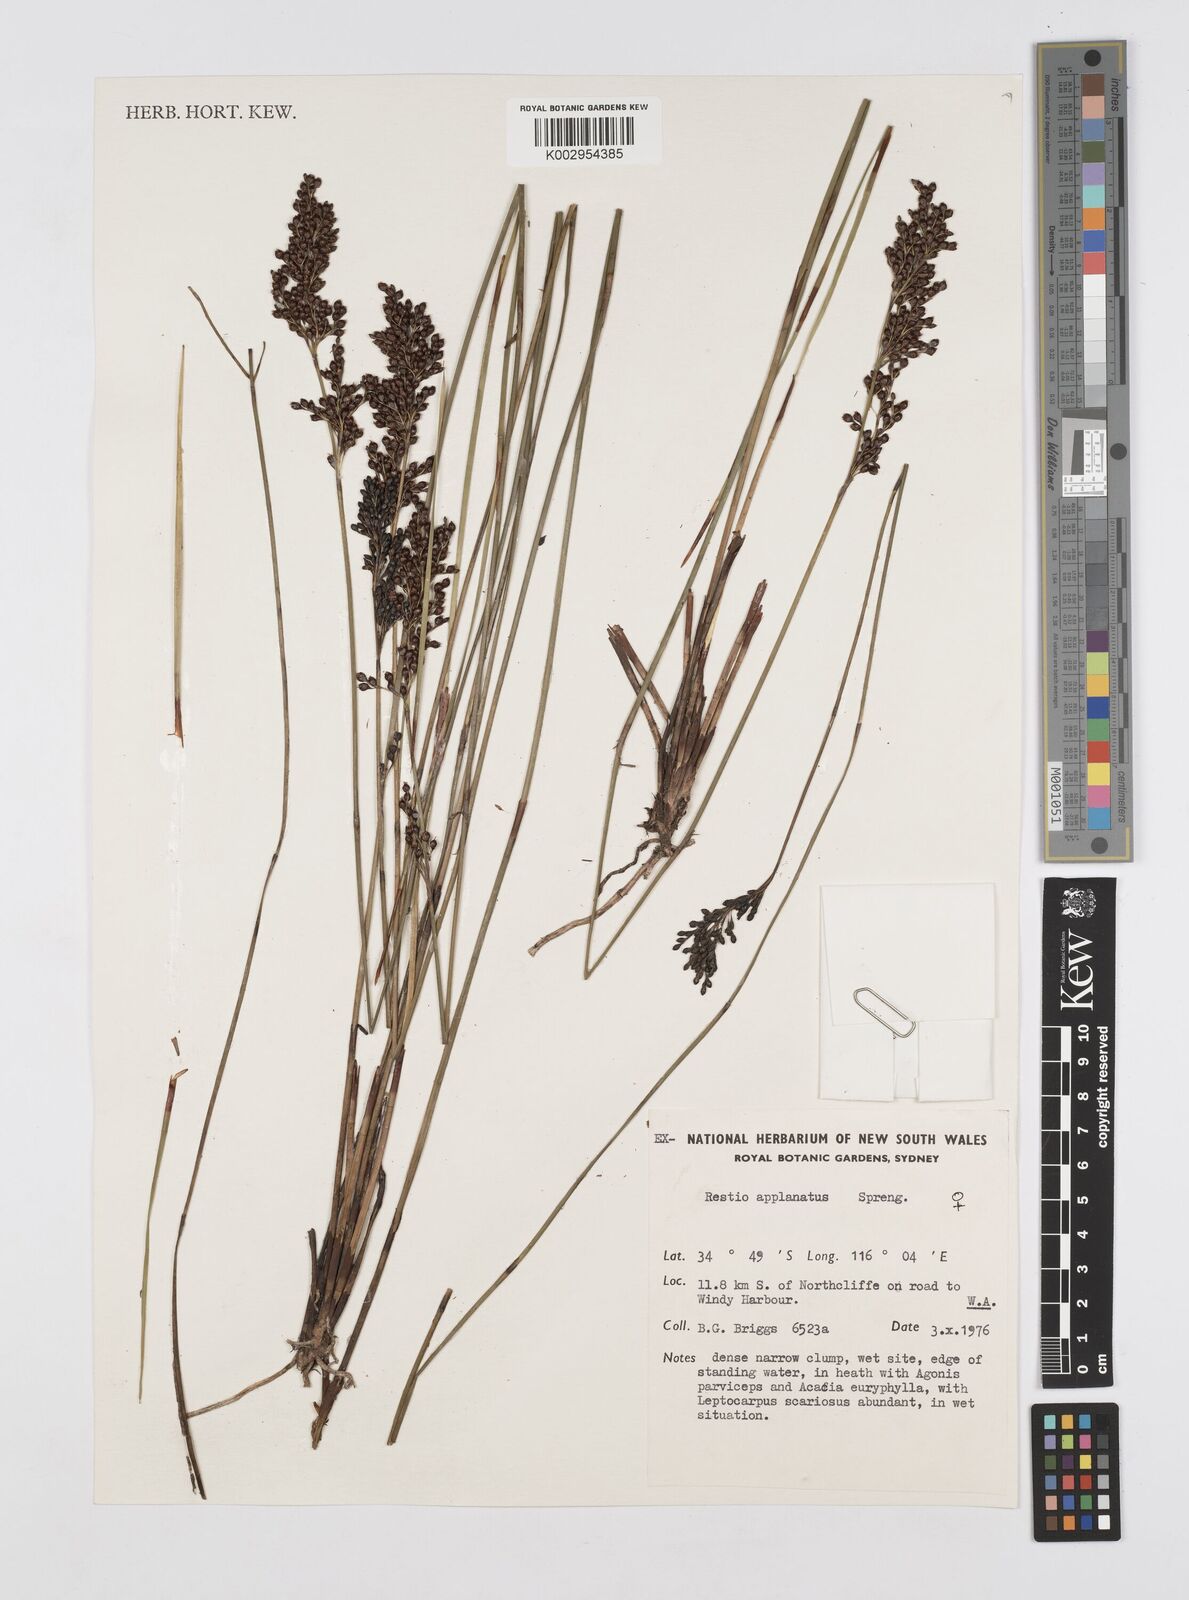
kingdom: Plantae
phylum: Tracheophyta
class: Liliopsida
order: Poales
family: Restionaceae
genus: Platychorda
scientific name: Platychorda applanata
